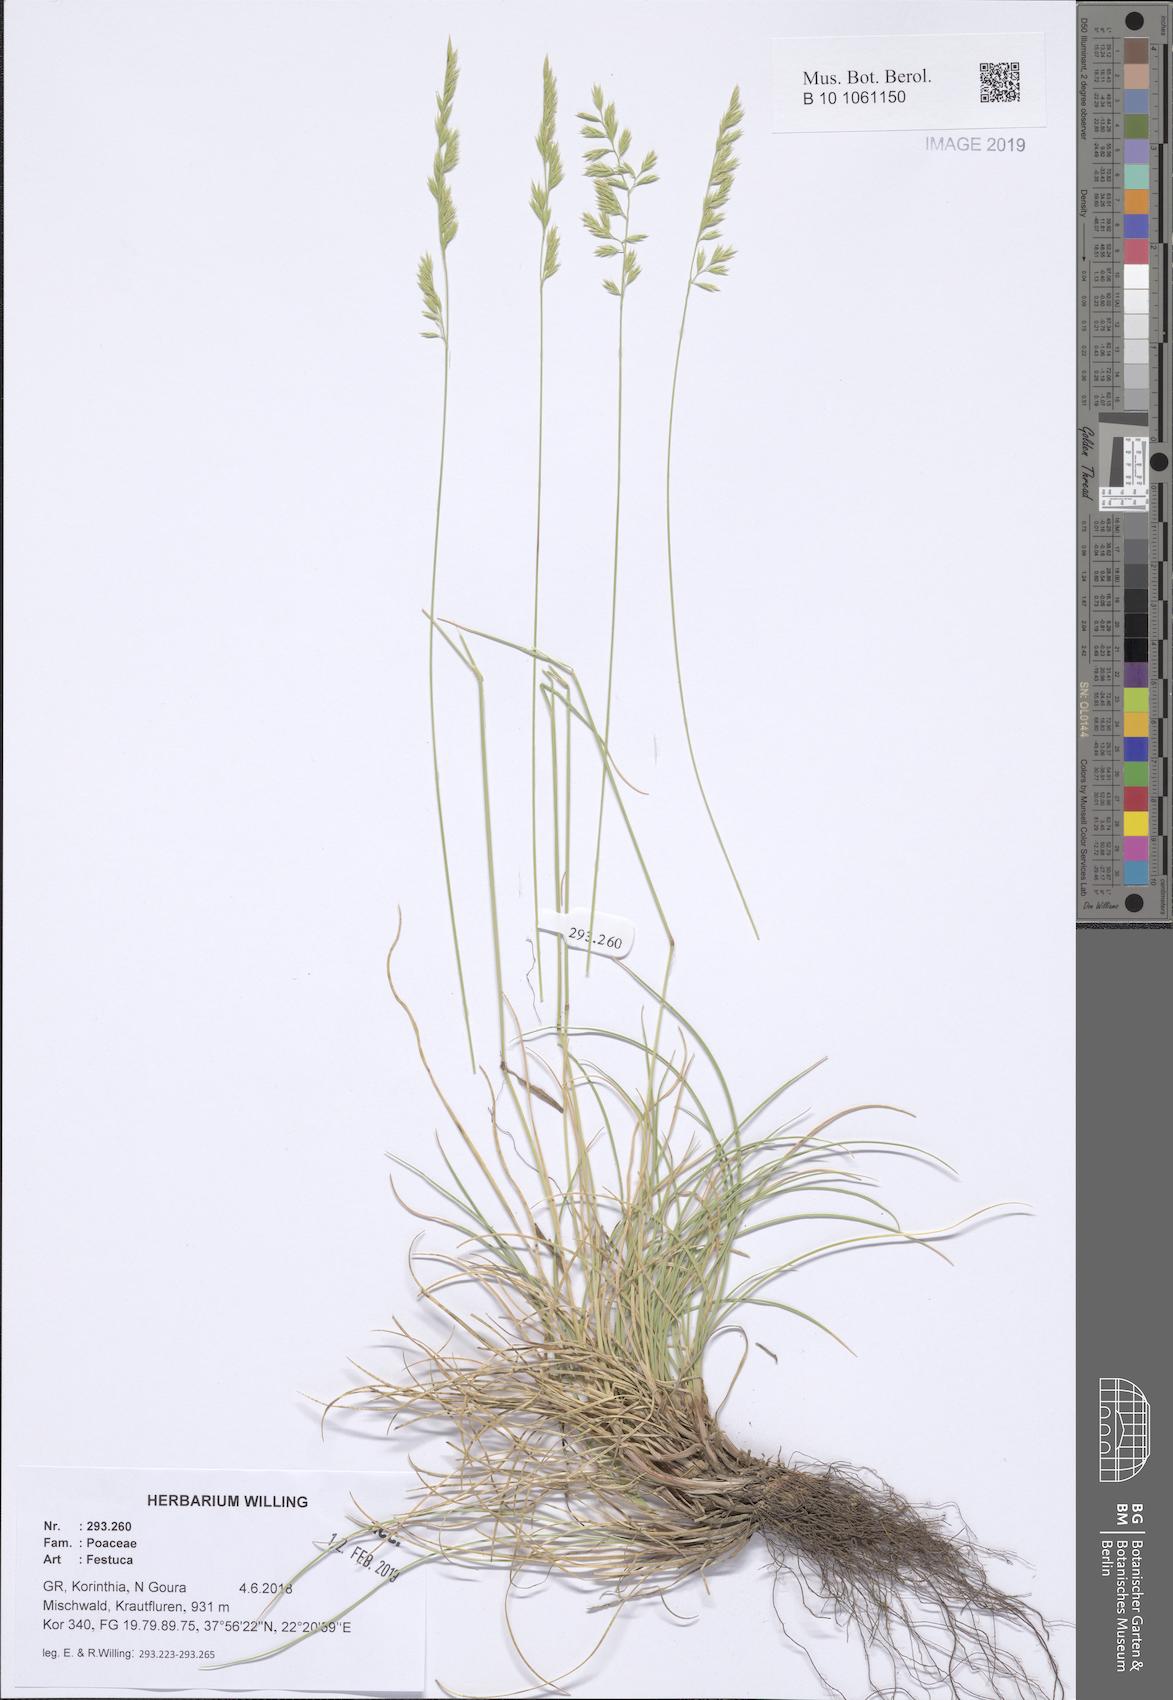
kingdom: Plantae
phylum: Tracheophyta
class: Liliopsida
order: Poales
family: Poaceae
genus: Festuca
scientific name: Festuca
